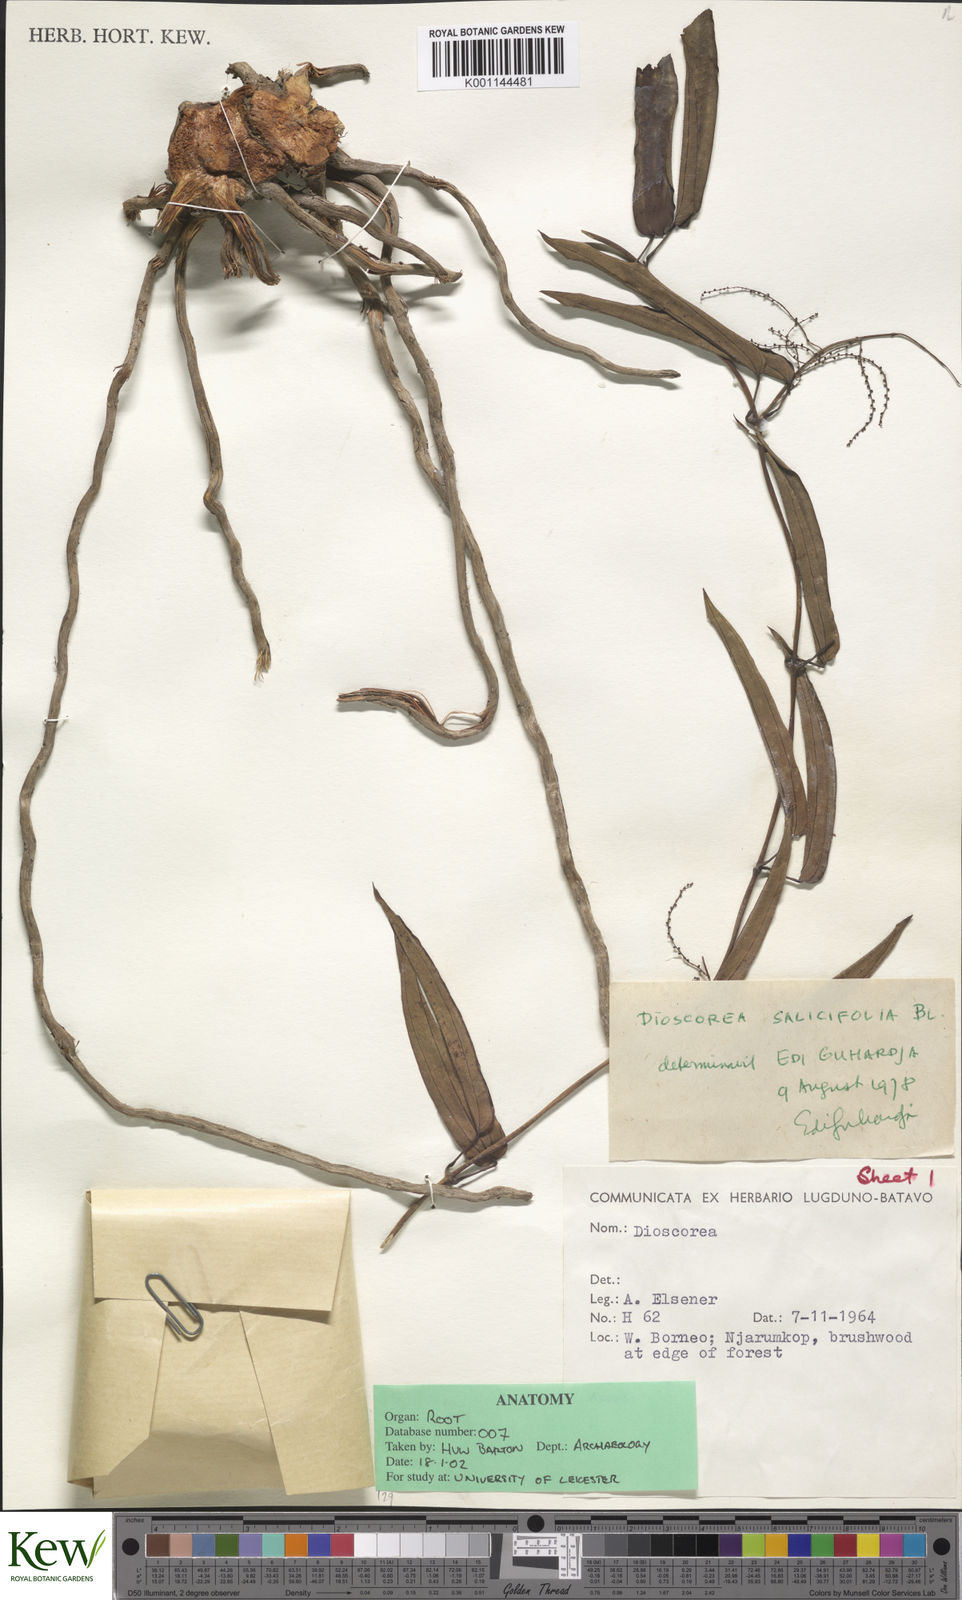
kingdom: Plantae
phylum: Tracheophyta
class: Liliopsida
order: Dioscoreales
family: Dioscoreaceae
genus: Dioscorea
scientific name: Dioscorea salicifolia
